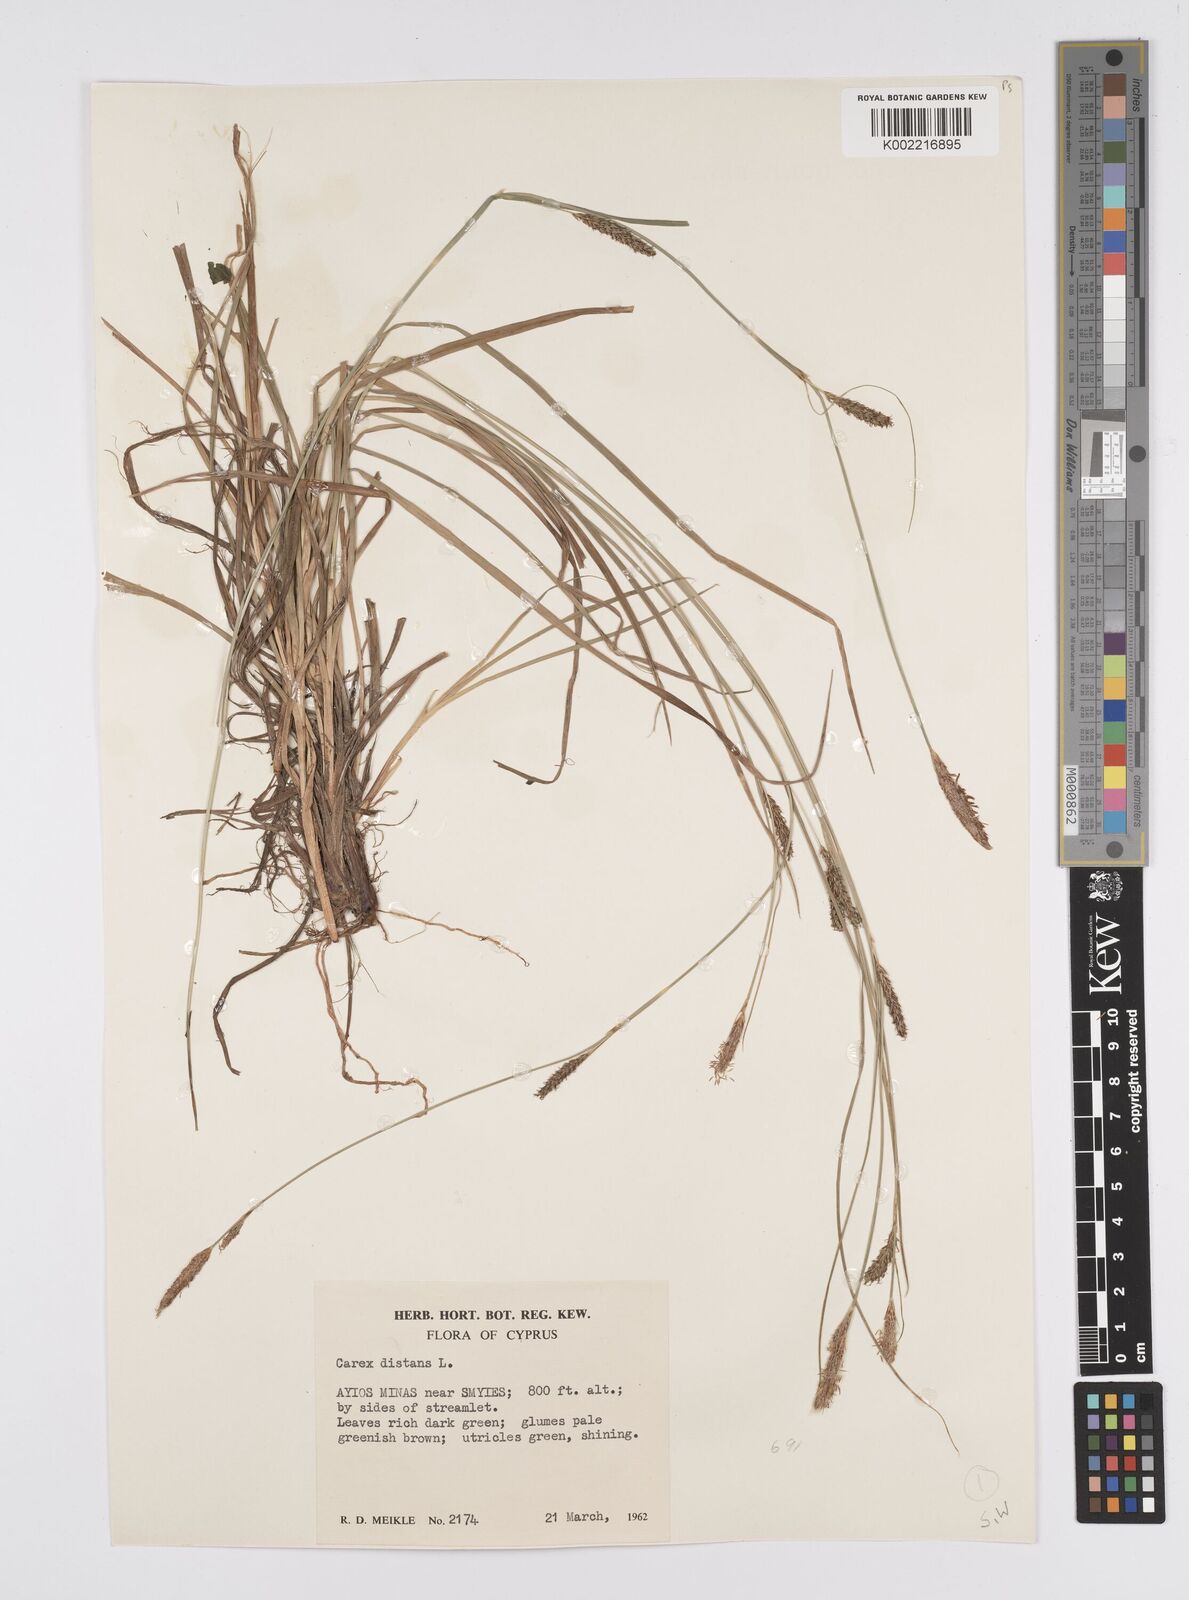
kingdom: Plantae
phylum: Tracheophyta
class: Liliopsida
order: Poales
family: Cyperaceae
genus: Carex
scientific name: Carex distans
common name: Distant sedge
